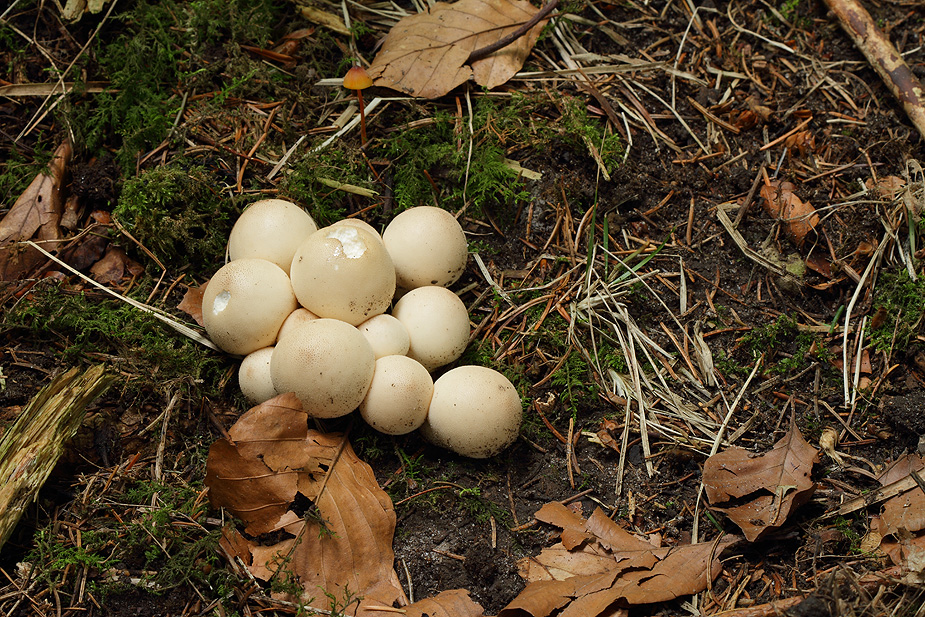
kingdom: Fungi
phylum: Basidiomycota
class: Agaricomycetes
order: Agaricales
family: Lycoperdaceae
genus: Apioperdon
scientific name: Apioperdon pyriforme
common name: pære-støvbold
